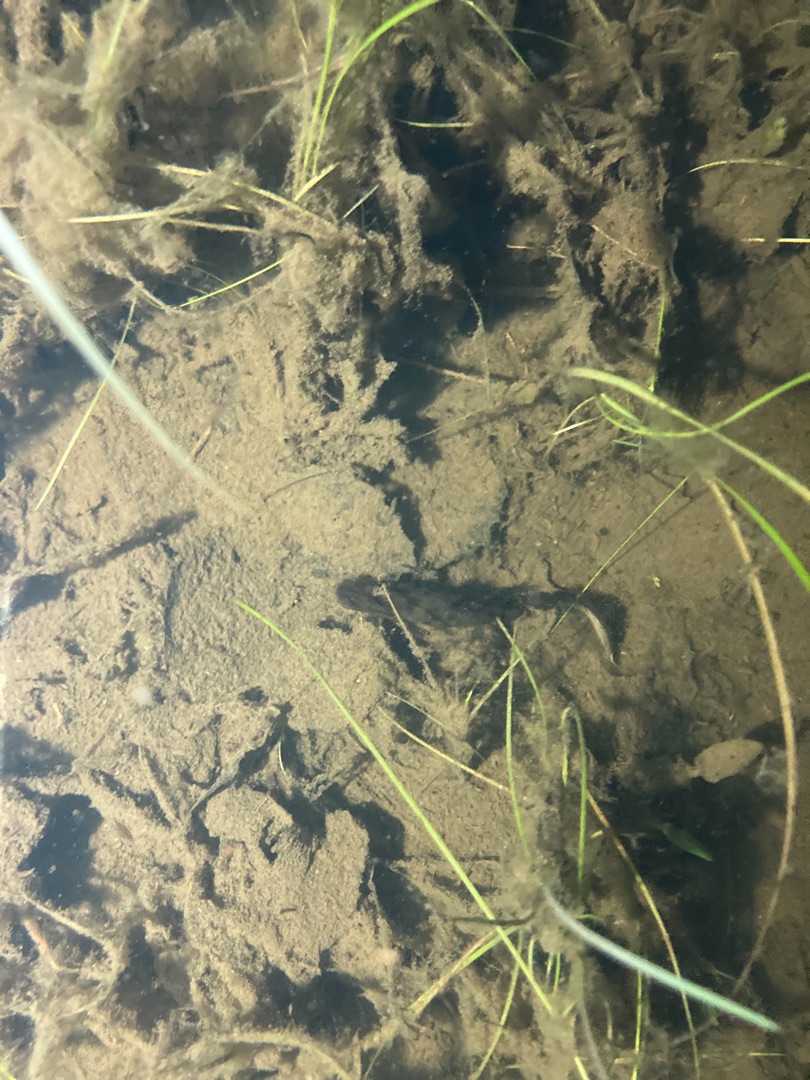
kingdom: Animalia
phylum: Chordata
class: Amphibia
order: Caudata
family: Salamandridae
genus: Triturus
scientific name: Triturus cristatus
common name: Stor vandsalamander
